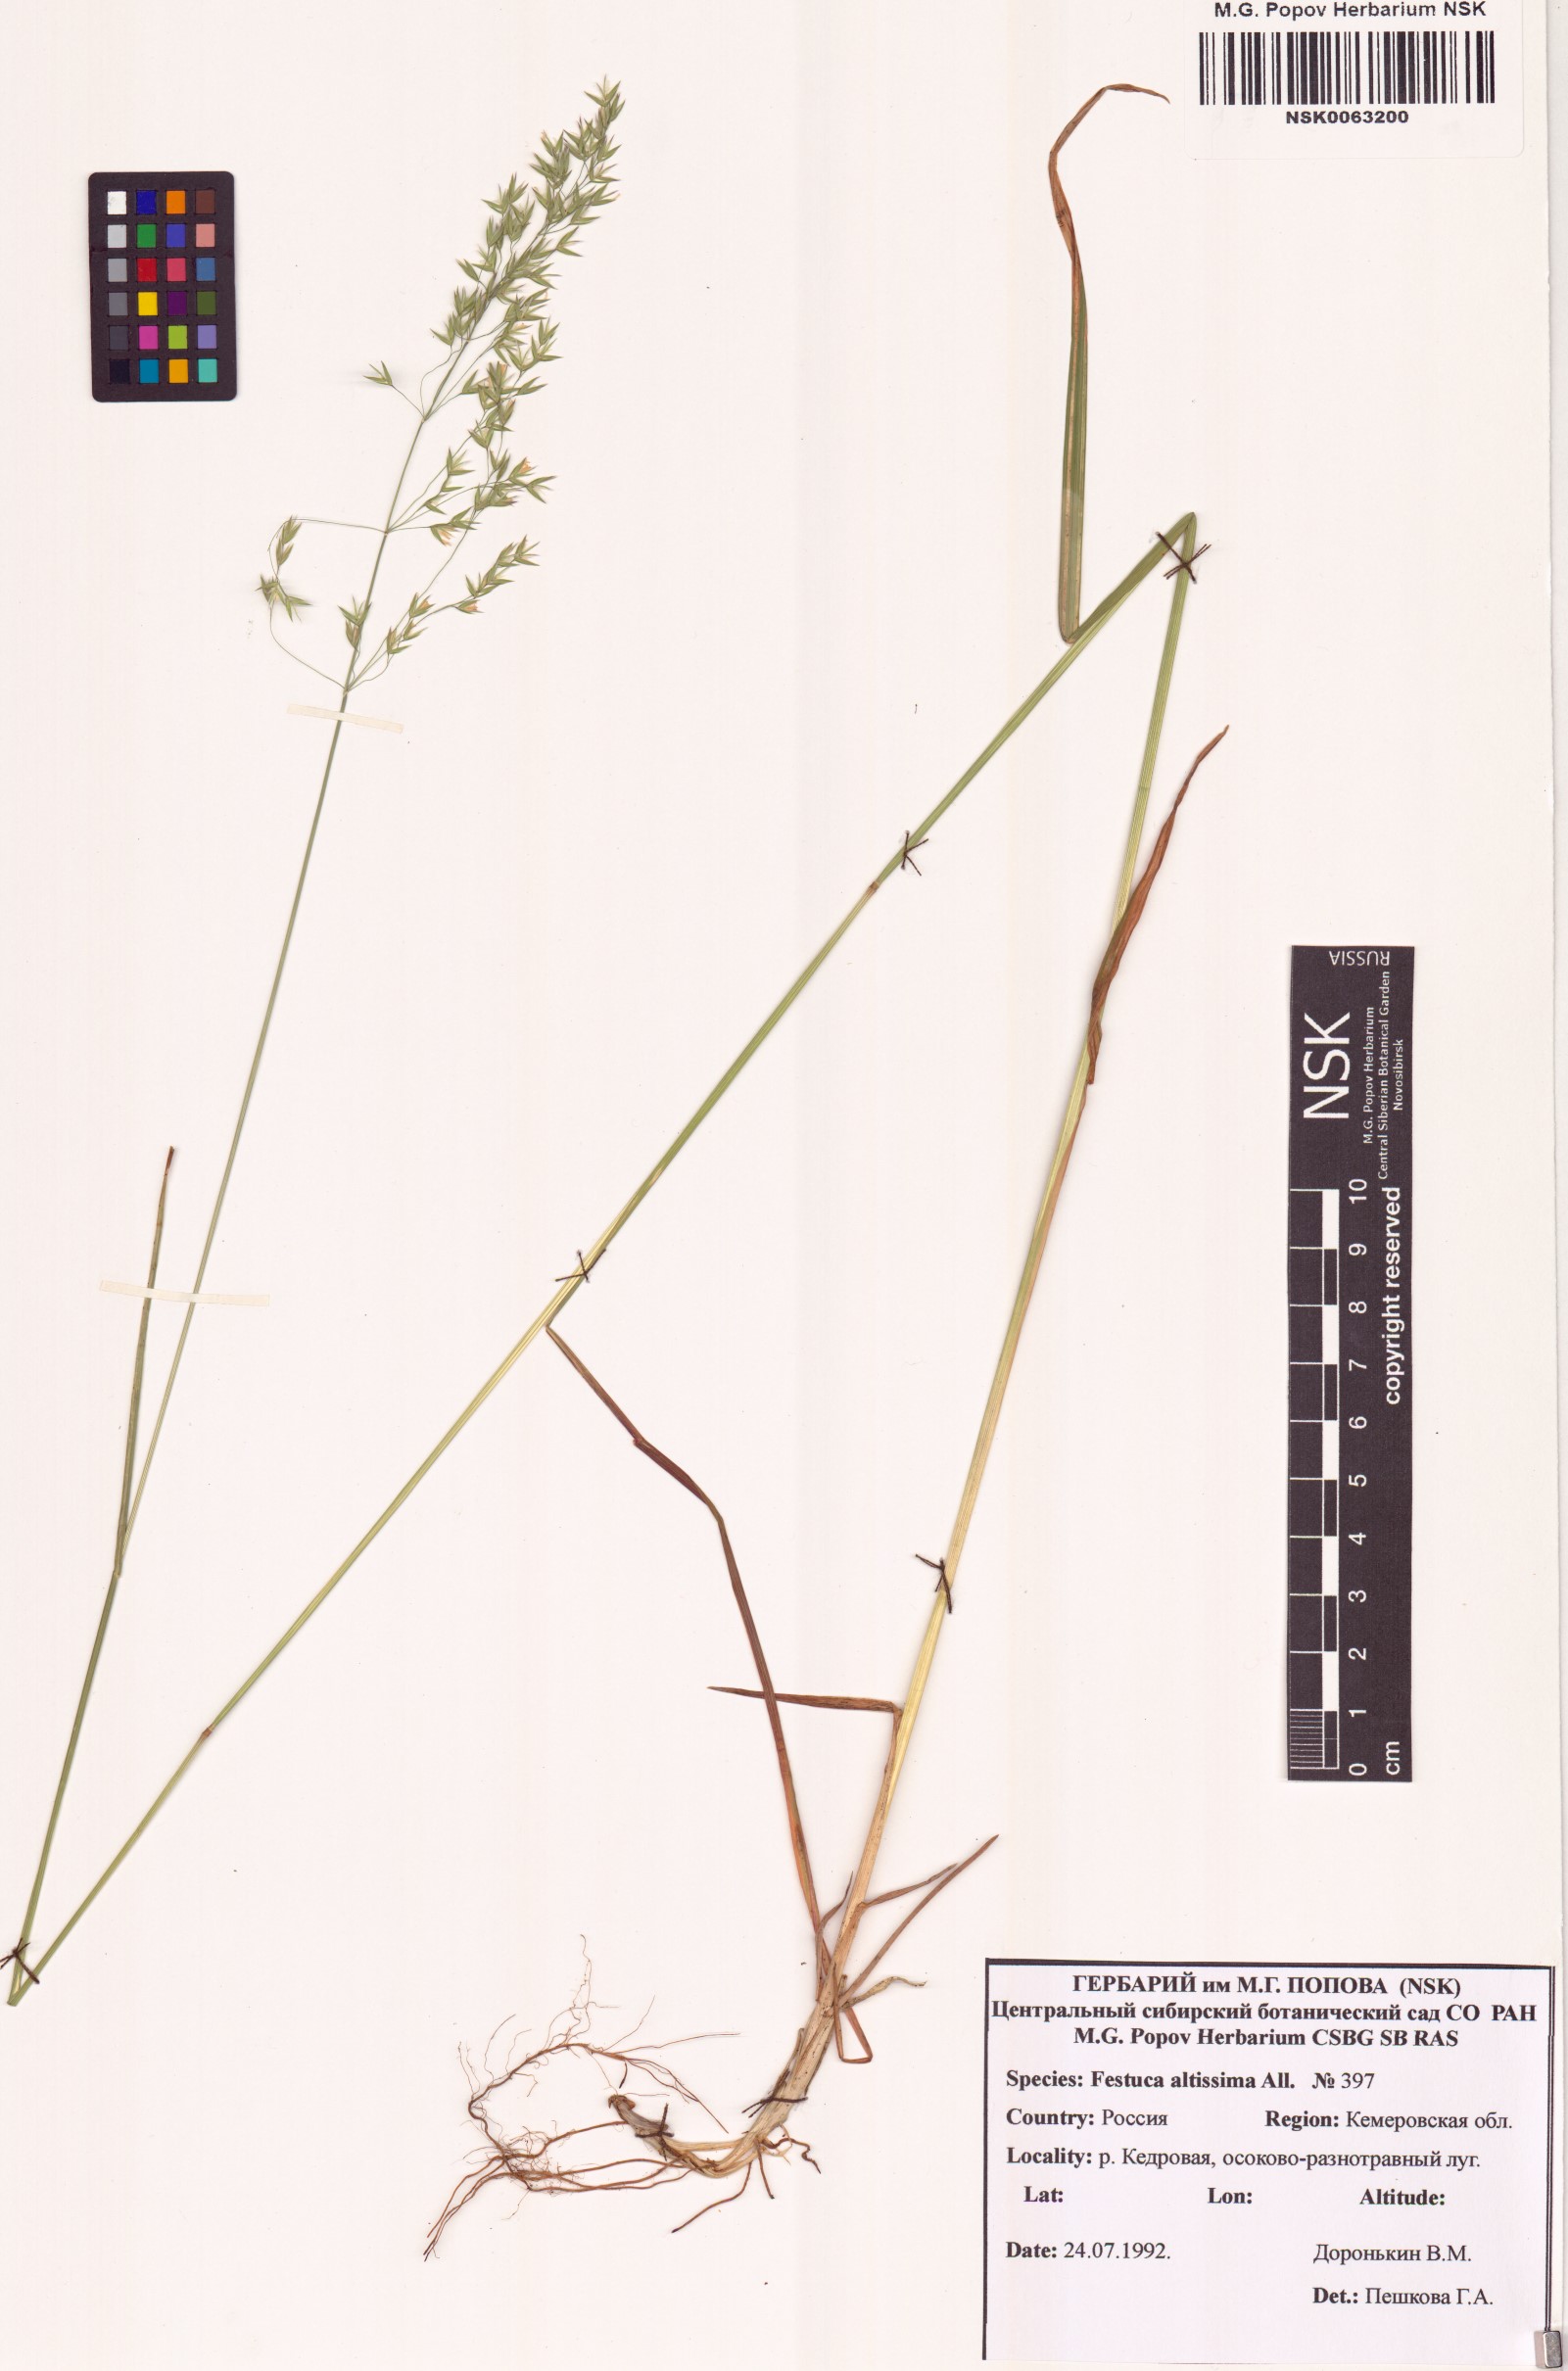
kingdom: Plantae
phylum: Tracheophyta
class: Liliopsida
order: Poales
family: Poaceae
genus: Festuca
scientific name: Festuca altissima
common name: Wood fescue
